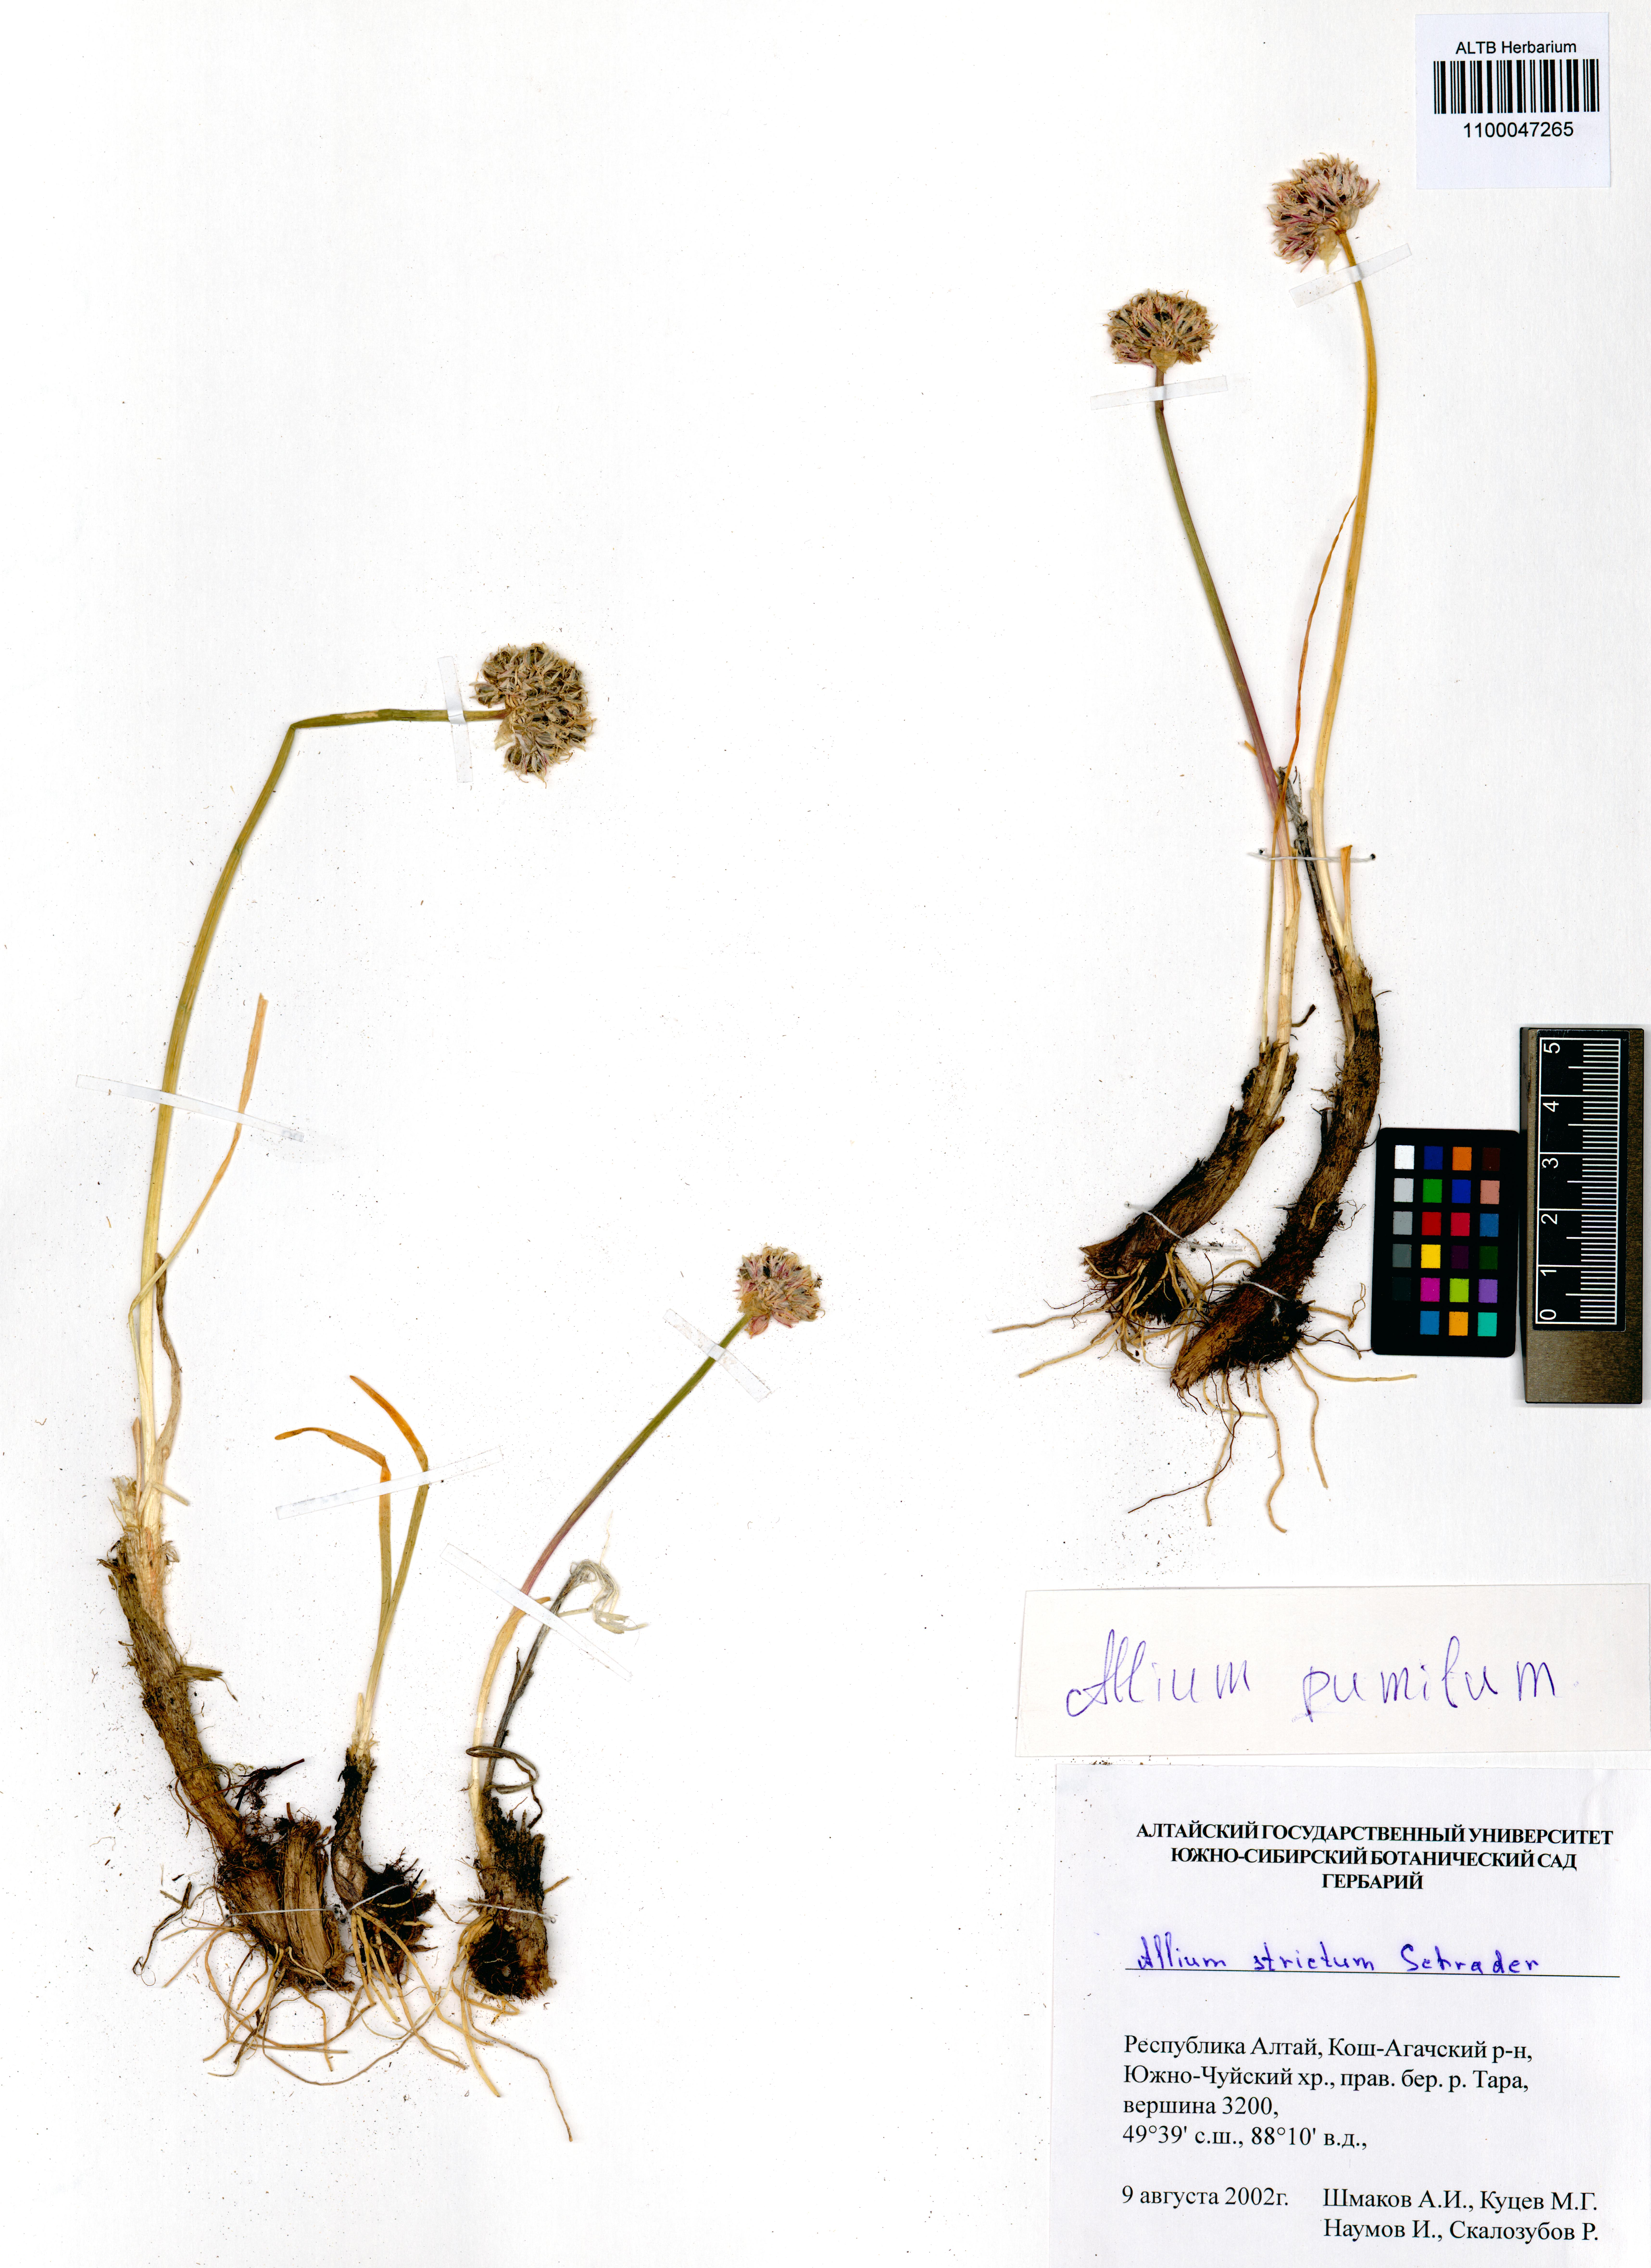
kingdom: Plantae
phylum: Tracheophyta
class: Liliopsida
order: Asparagales
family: Amaryllidaceae
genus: Allium
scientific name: Allium pumilum
